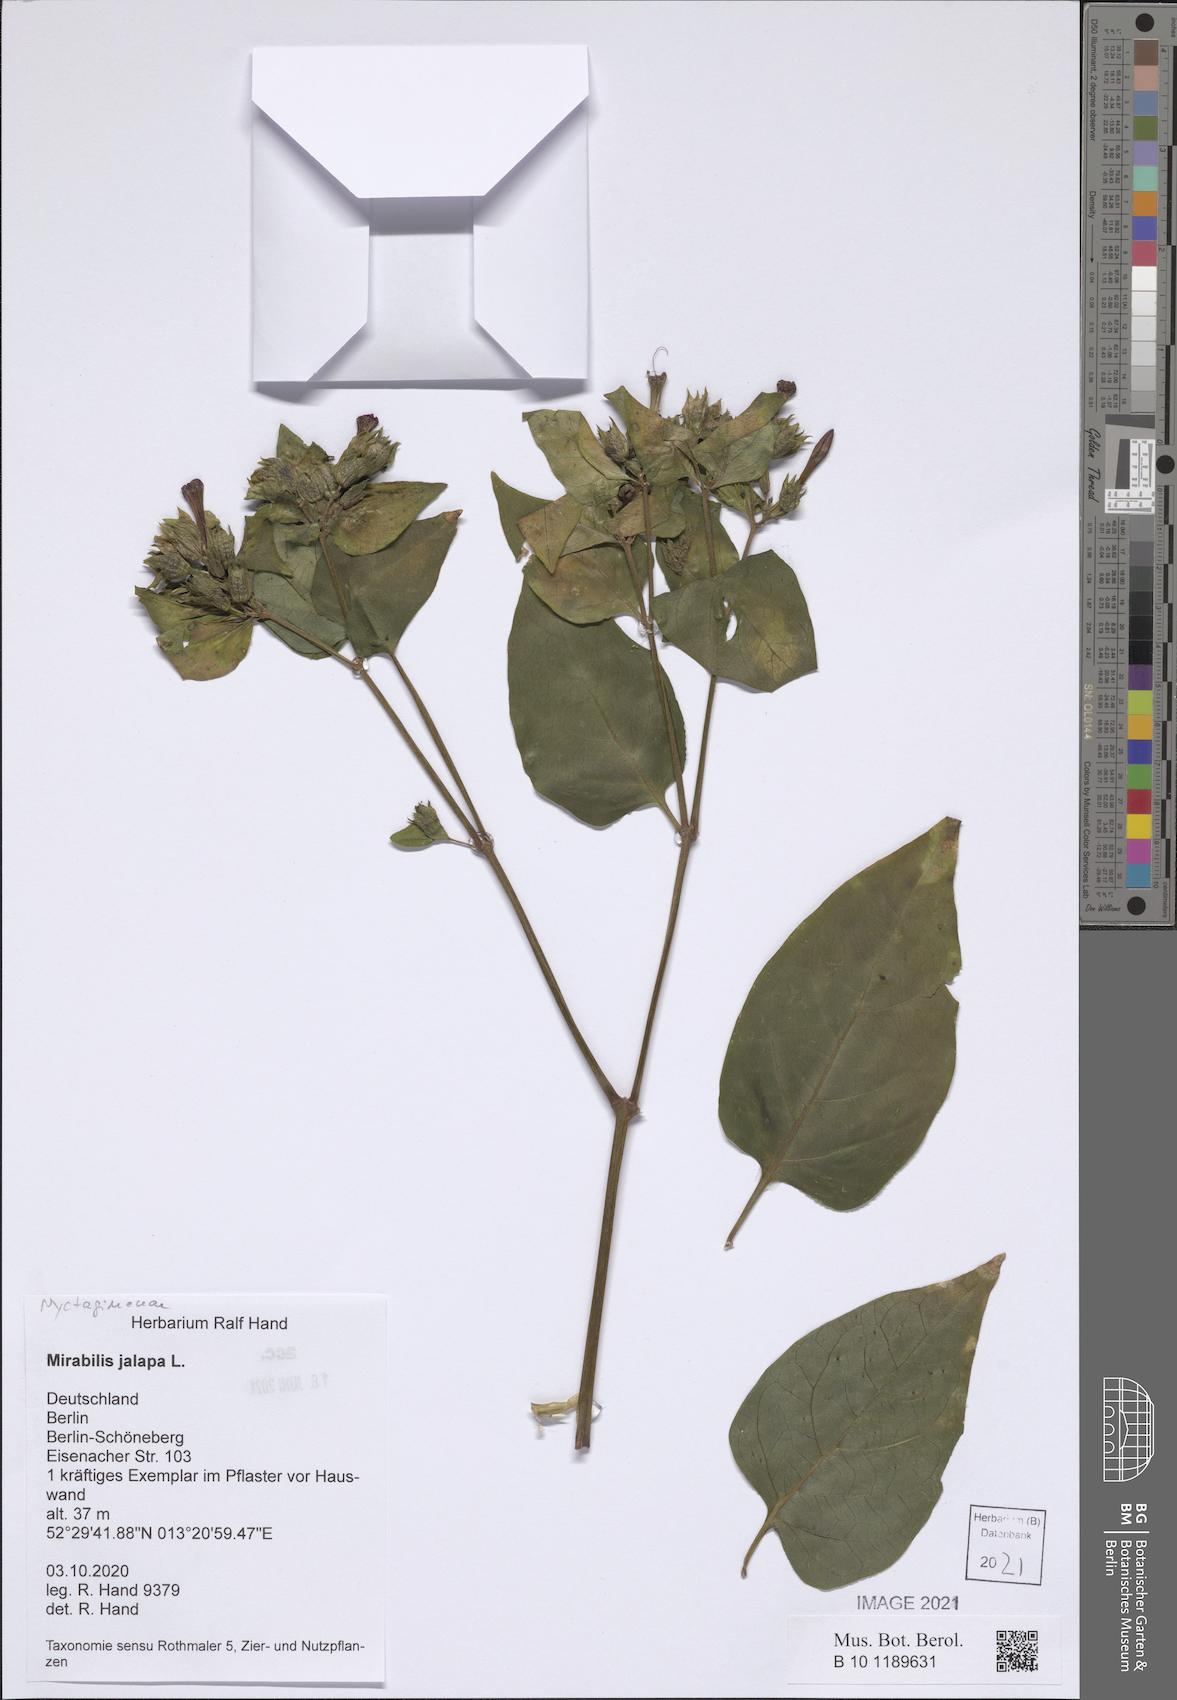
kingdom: Plantae
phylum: Tracheophyta
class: Magnoliopsida
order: Caryophyllales
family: Nyctaginaceae
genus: Mirabilis
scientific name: Mirabilis jalapa
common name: Marvel-of-peru
